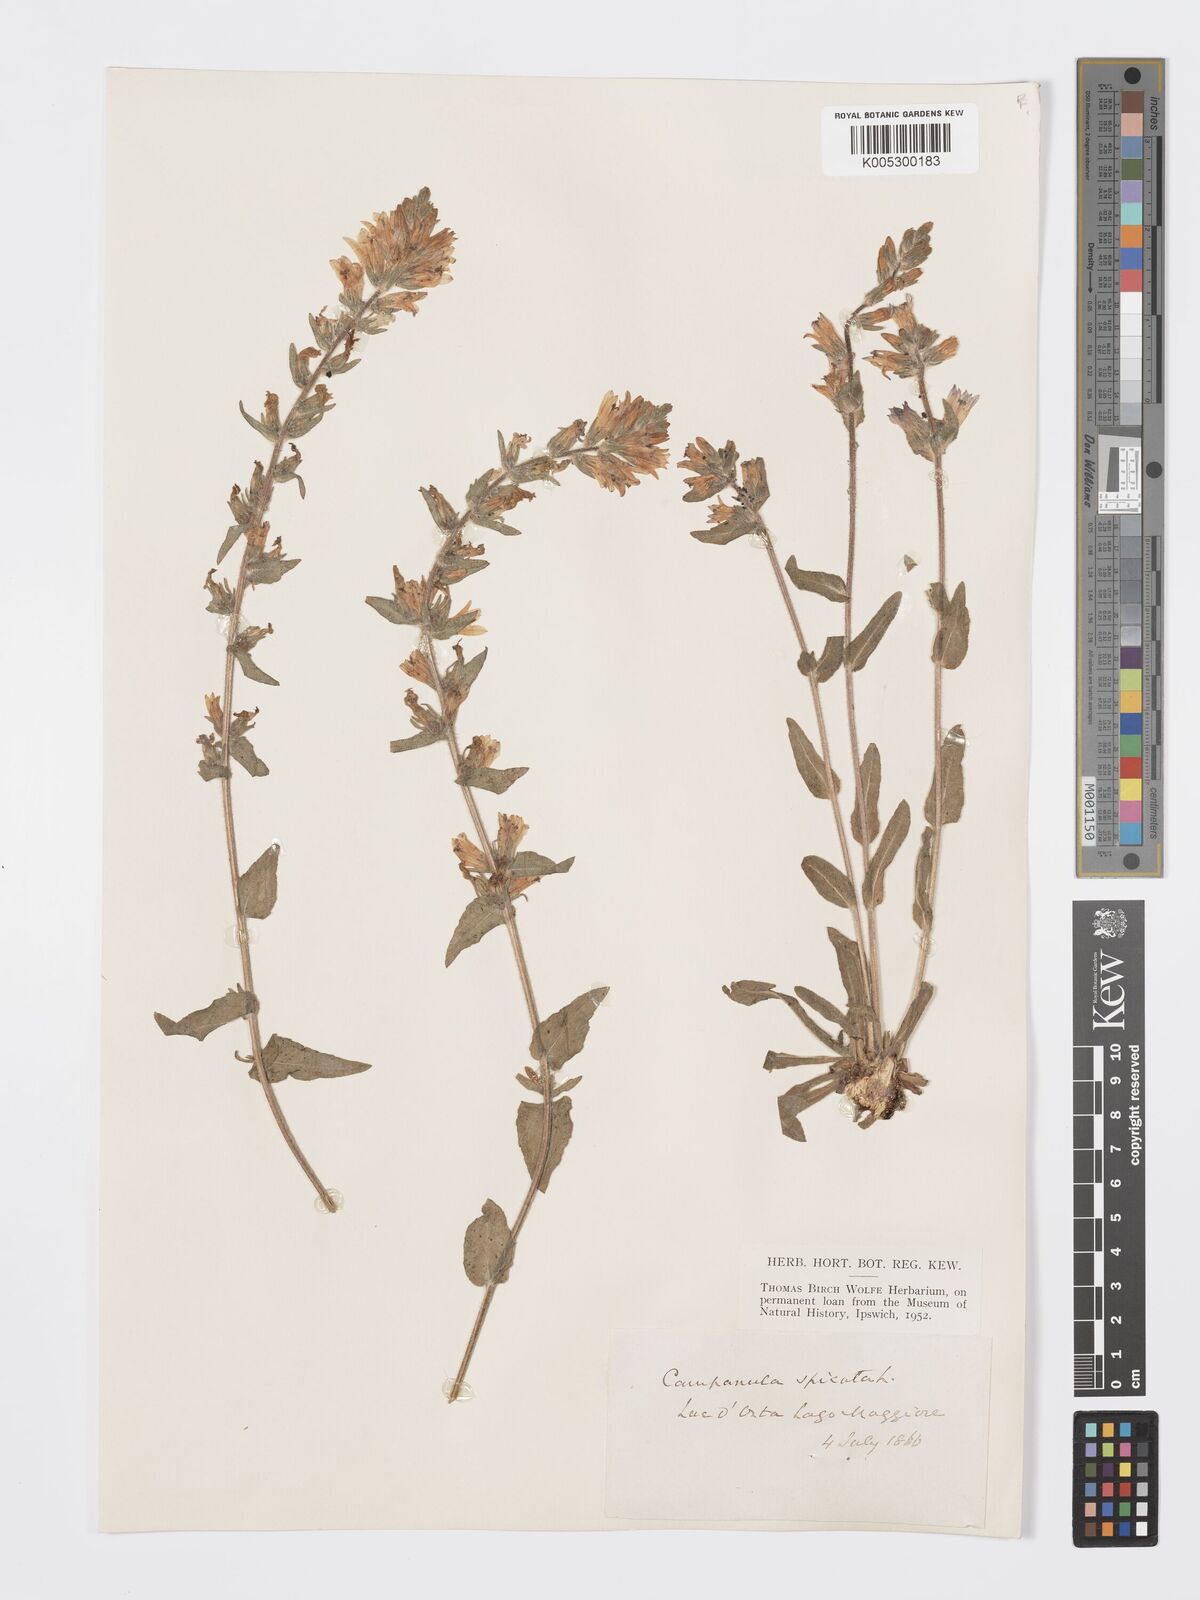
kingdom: Plantae
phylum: Tracheophyta
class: Magnoliopsida
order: Asterales
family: Campanulaceae
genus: Campanula
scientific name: Campanula spicata
